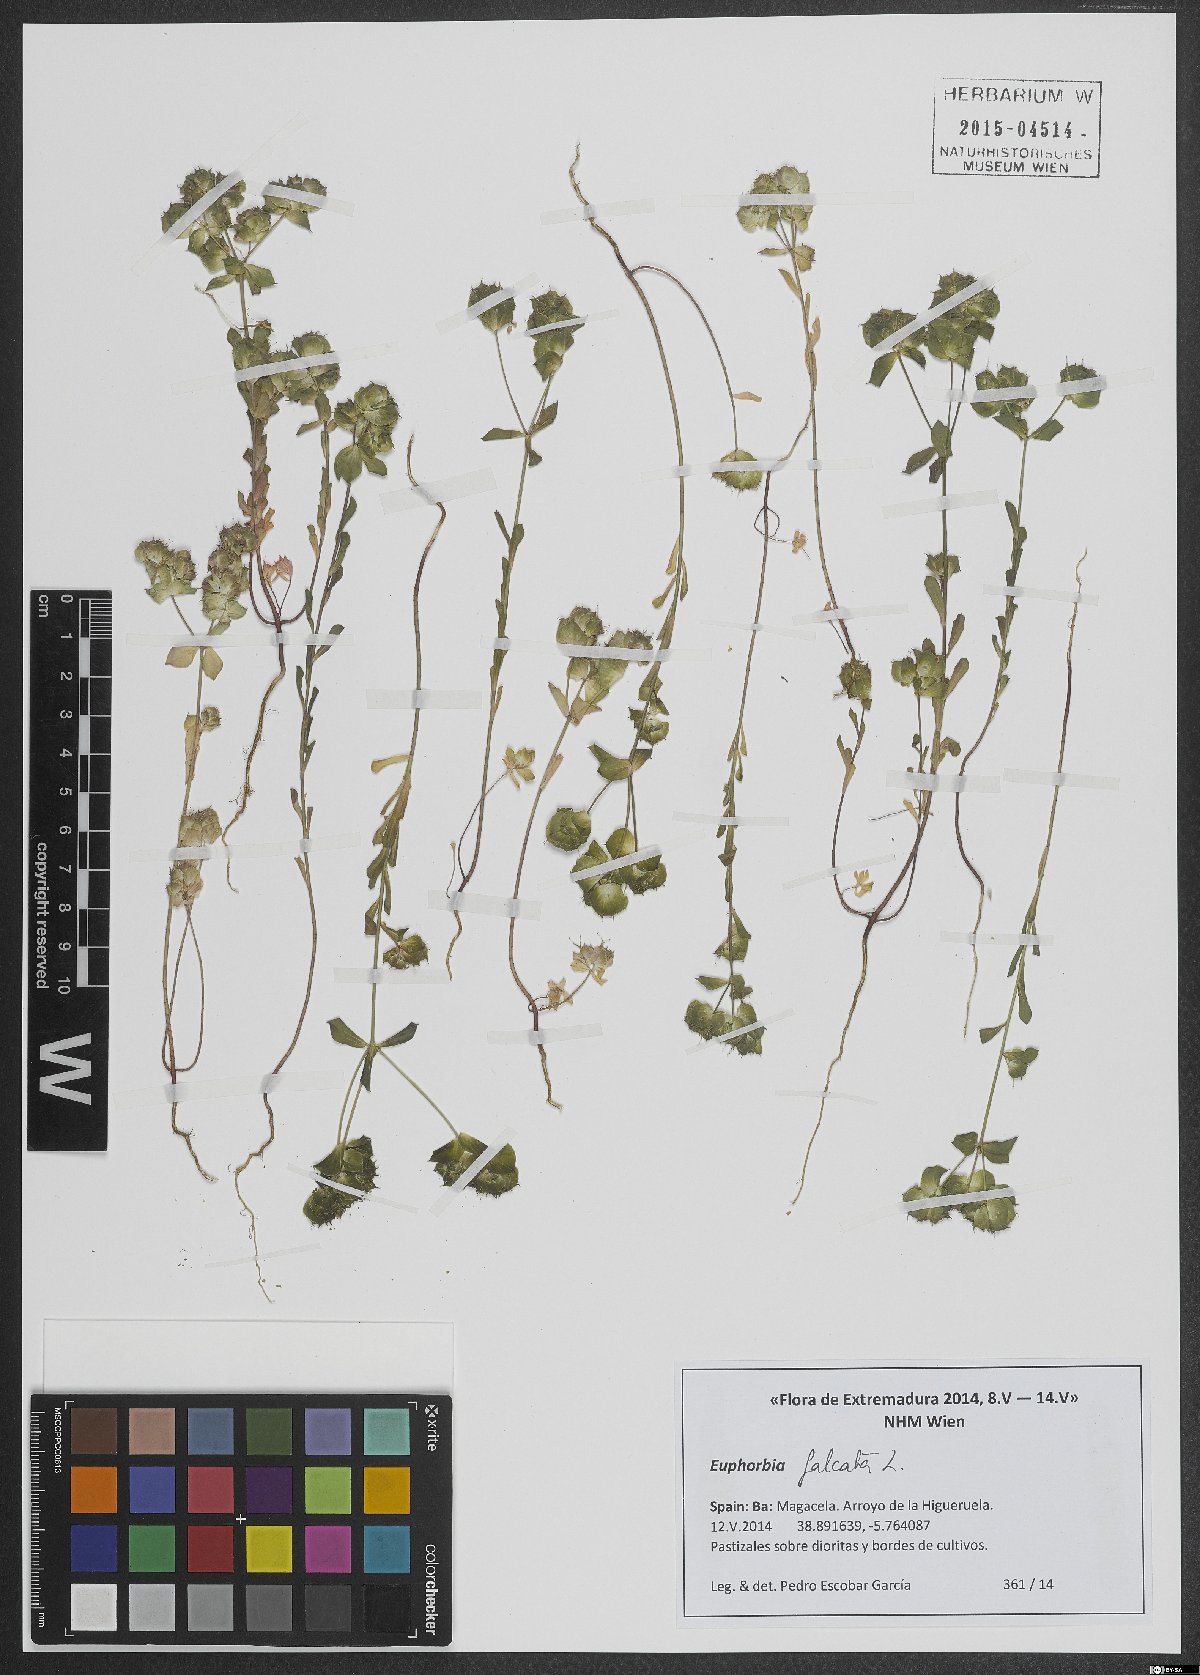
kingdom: Plantae
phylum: Tracheophyta
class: Magnoliopsida
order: Malpighiales
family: Euphorbiaceae
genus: Euphorbia
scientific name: Euphorbia falcata
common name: Sickle spurge
